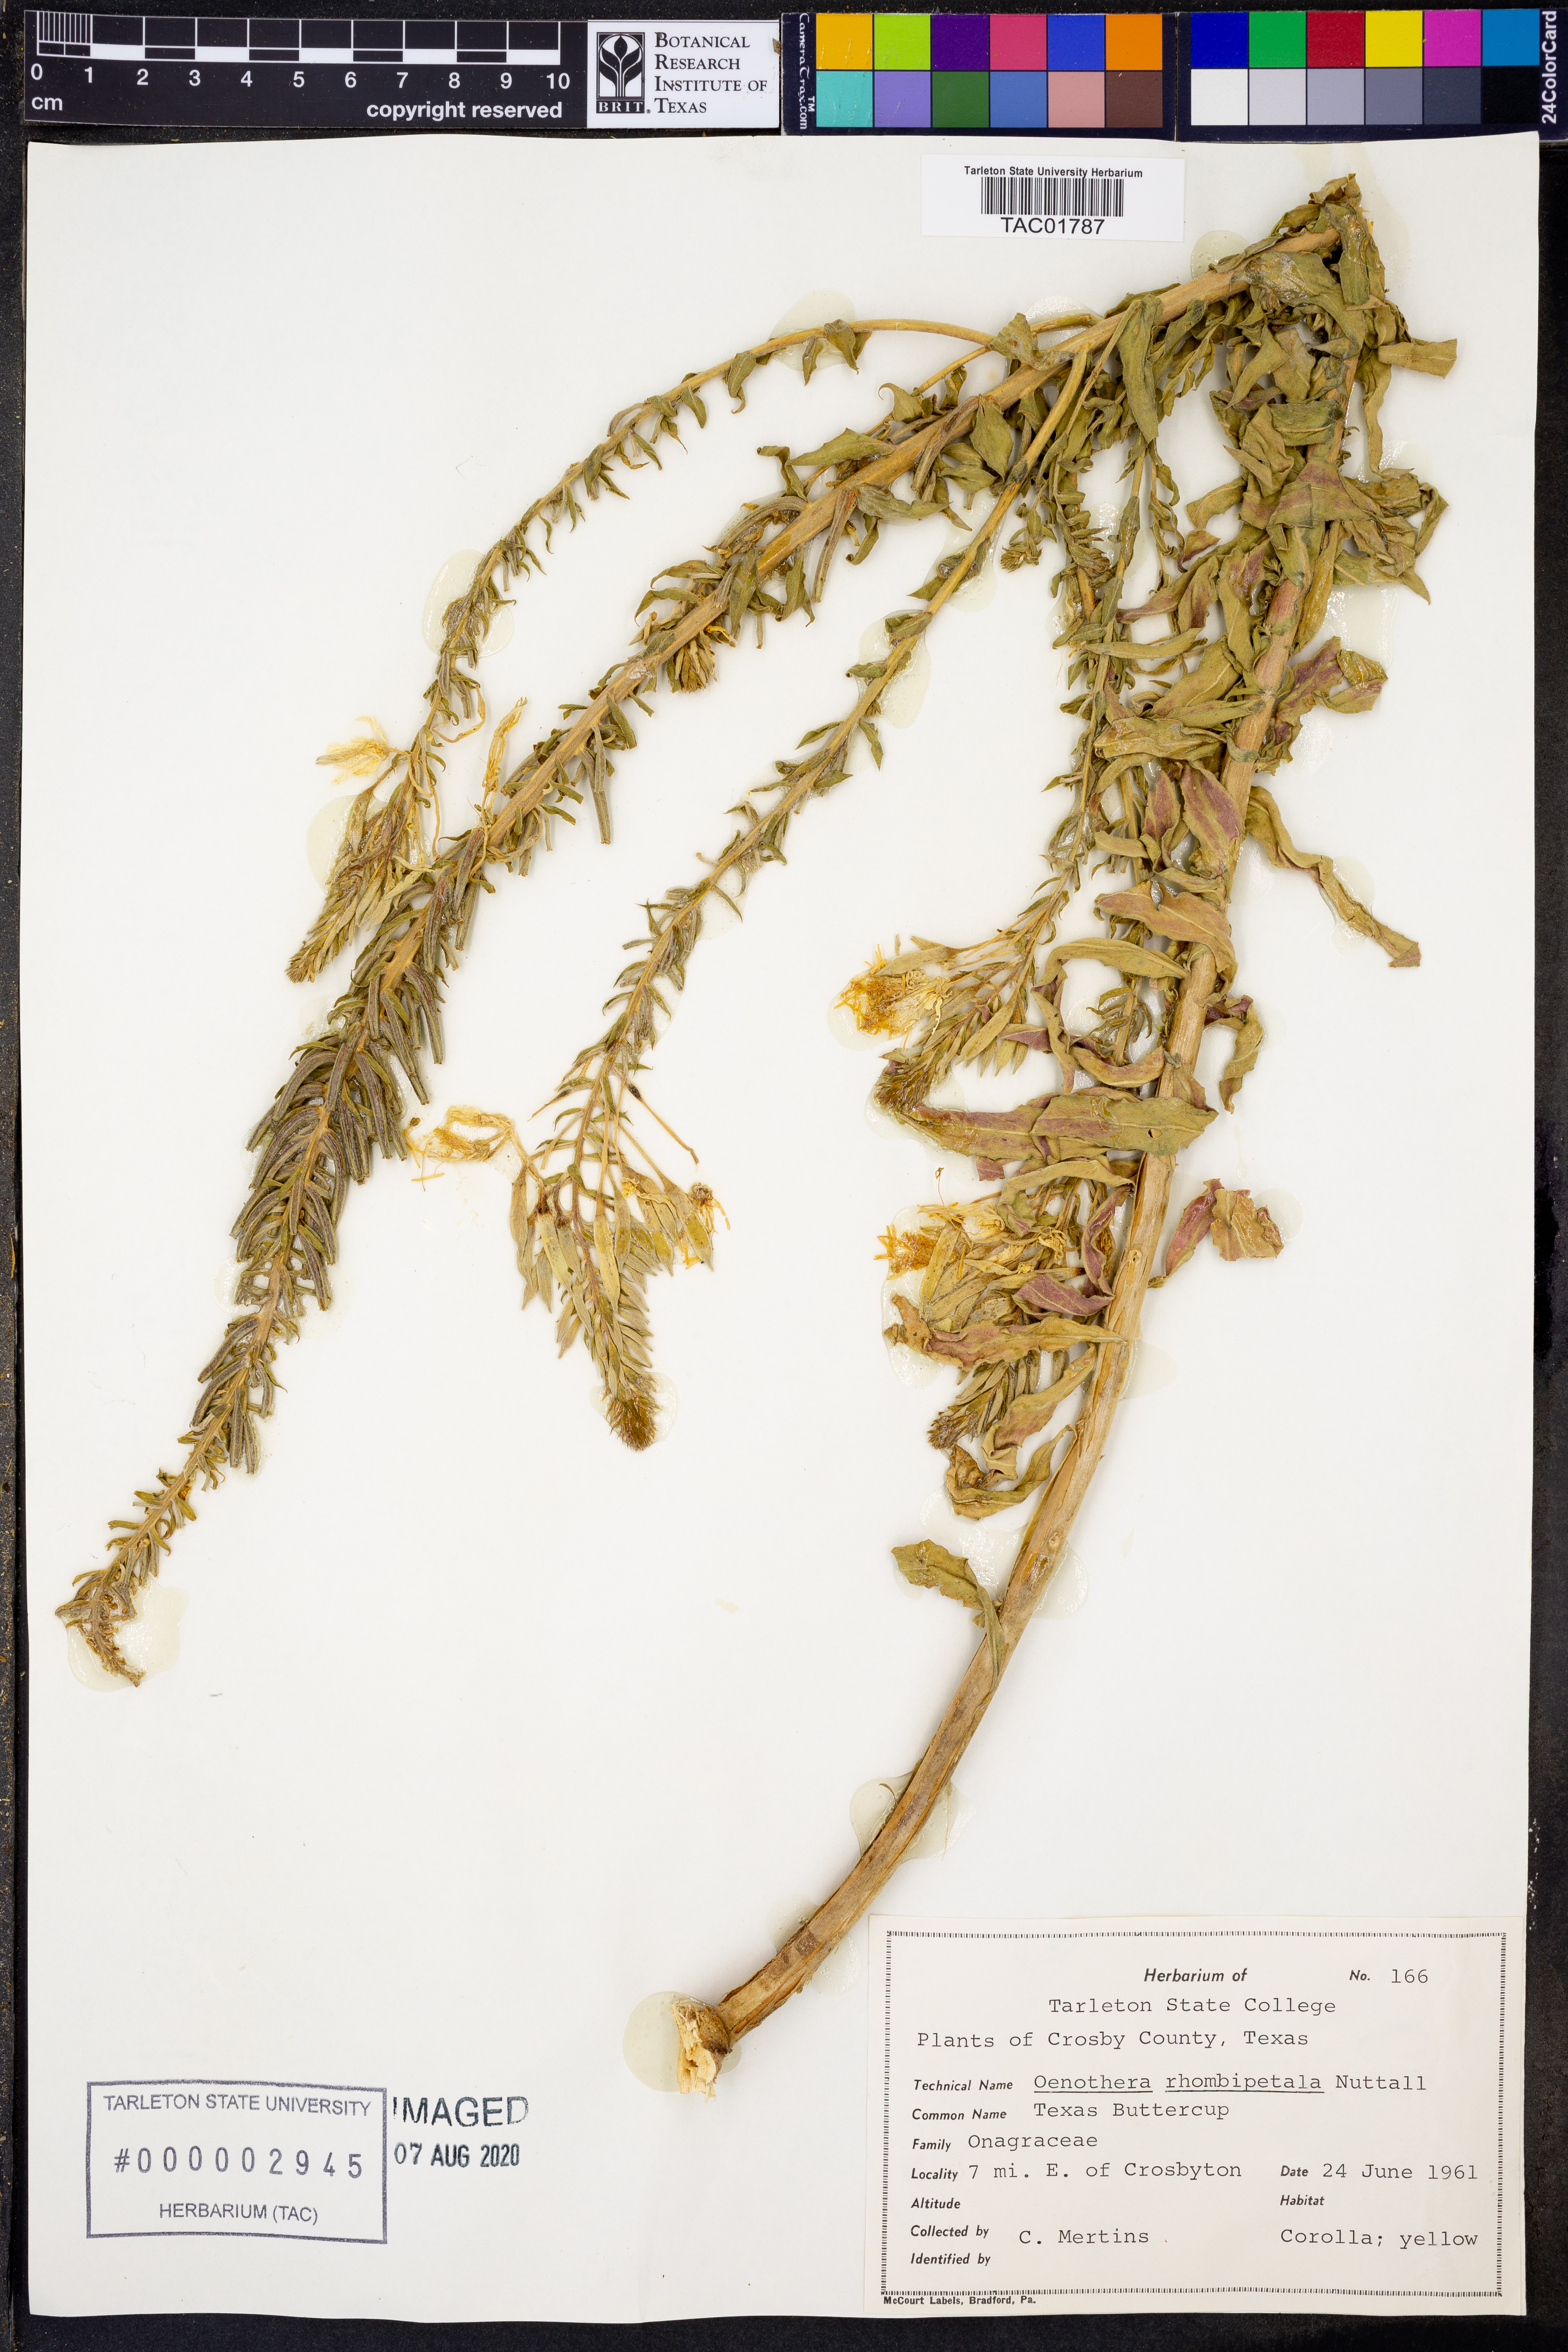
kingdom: Plantae
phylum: Tracheophyta
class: Magnoliopsida
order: Myrtales
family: Onagraceae
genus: Oenothera
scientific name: Oenothera rhombipetala
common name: Four-points evening-primrose
